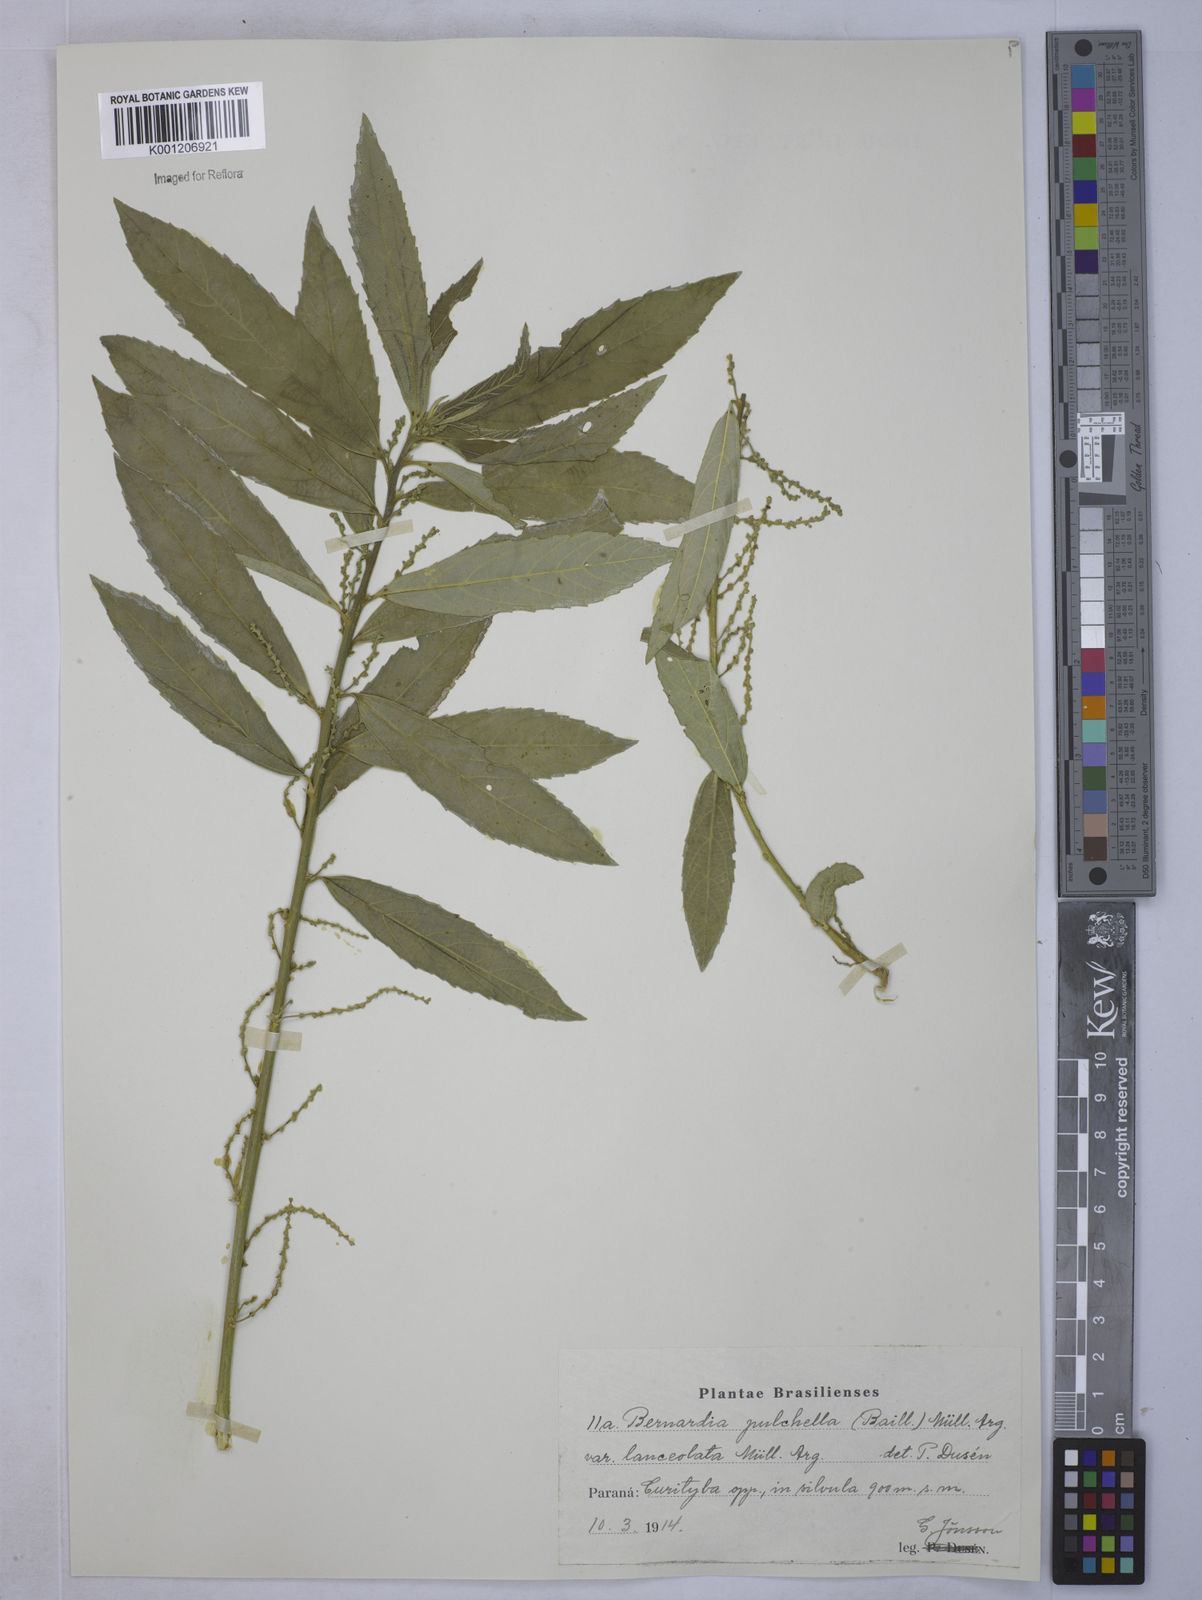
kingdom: Plantae
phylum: Tracheophyta
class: Magnoliopsida
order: Malpighiales
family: Euphorbiaceae
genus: Bernardia
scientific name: Bernardia
